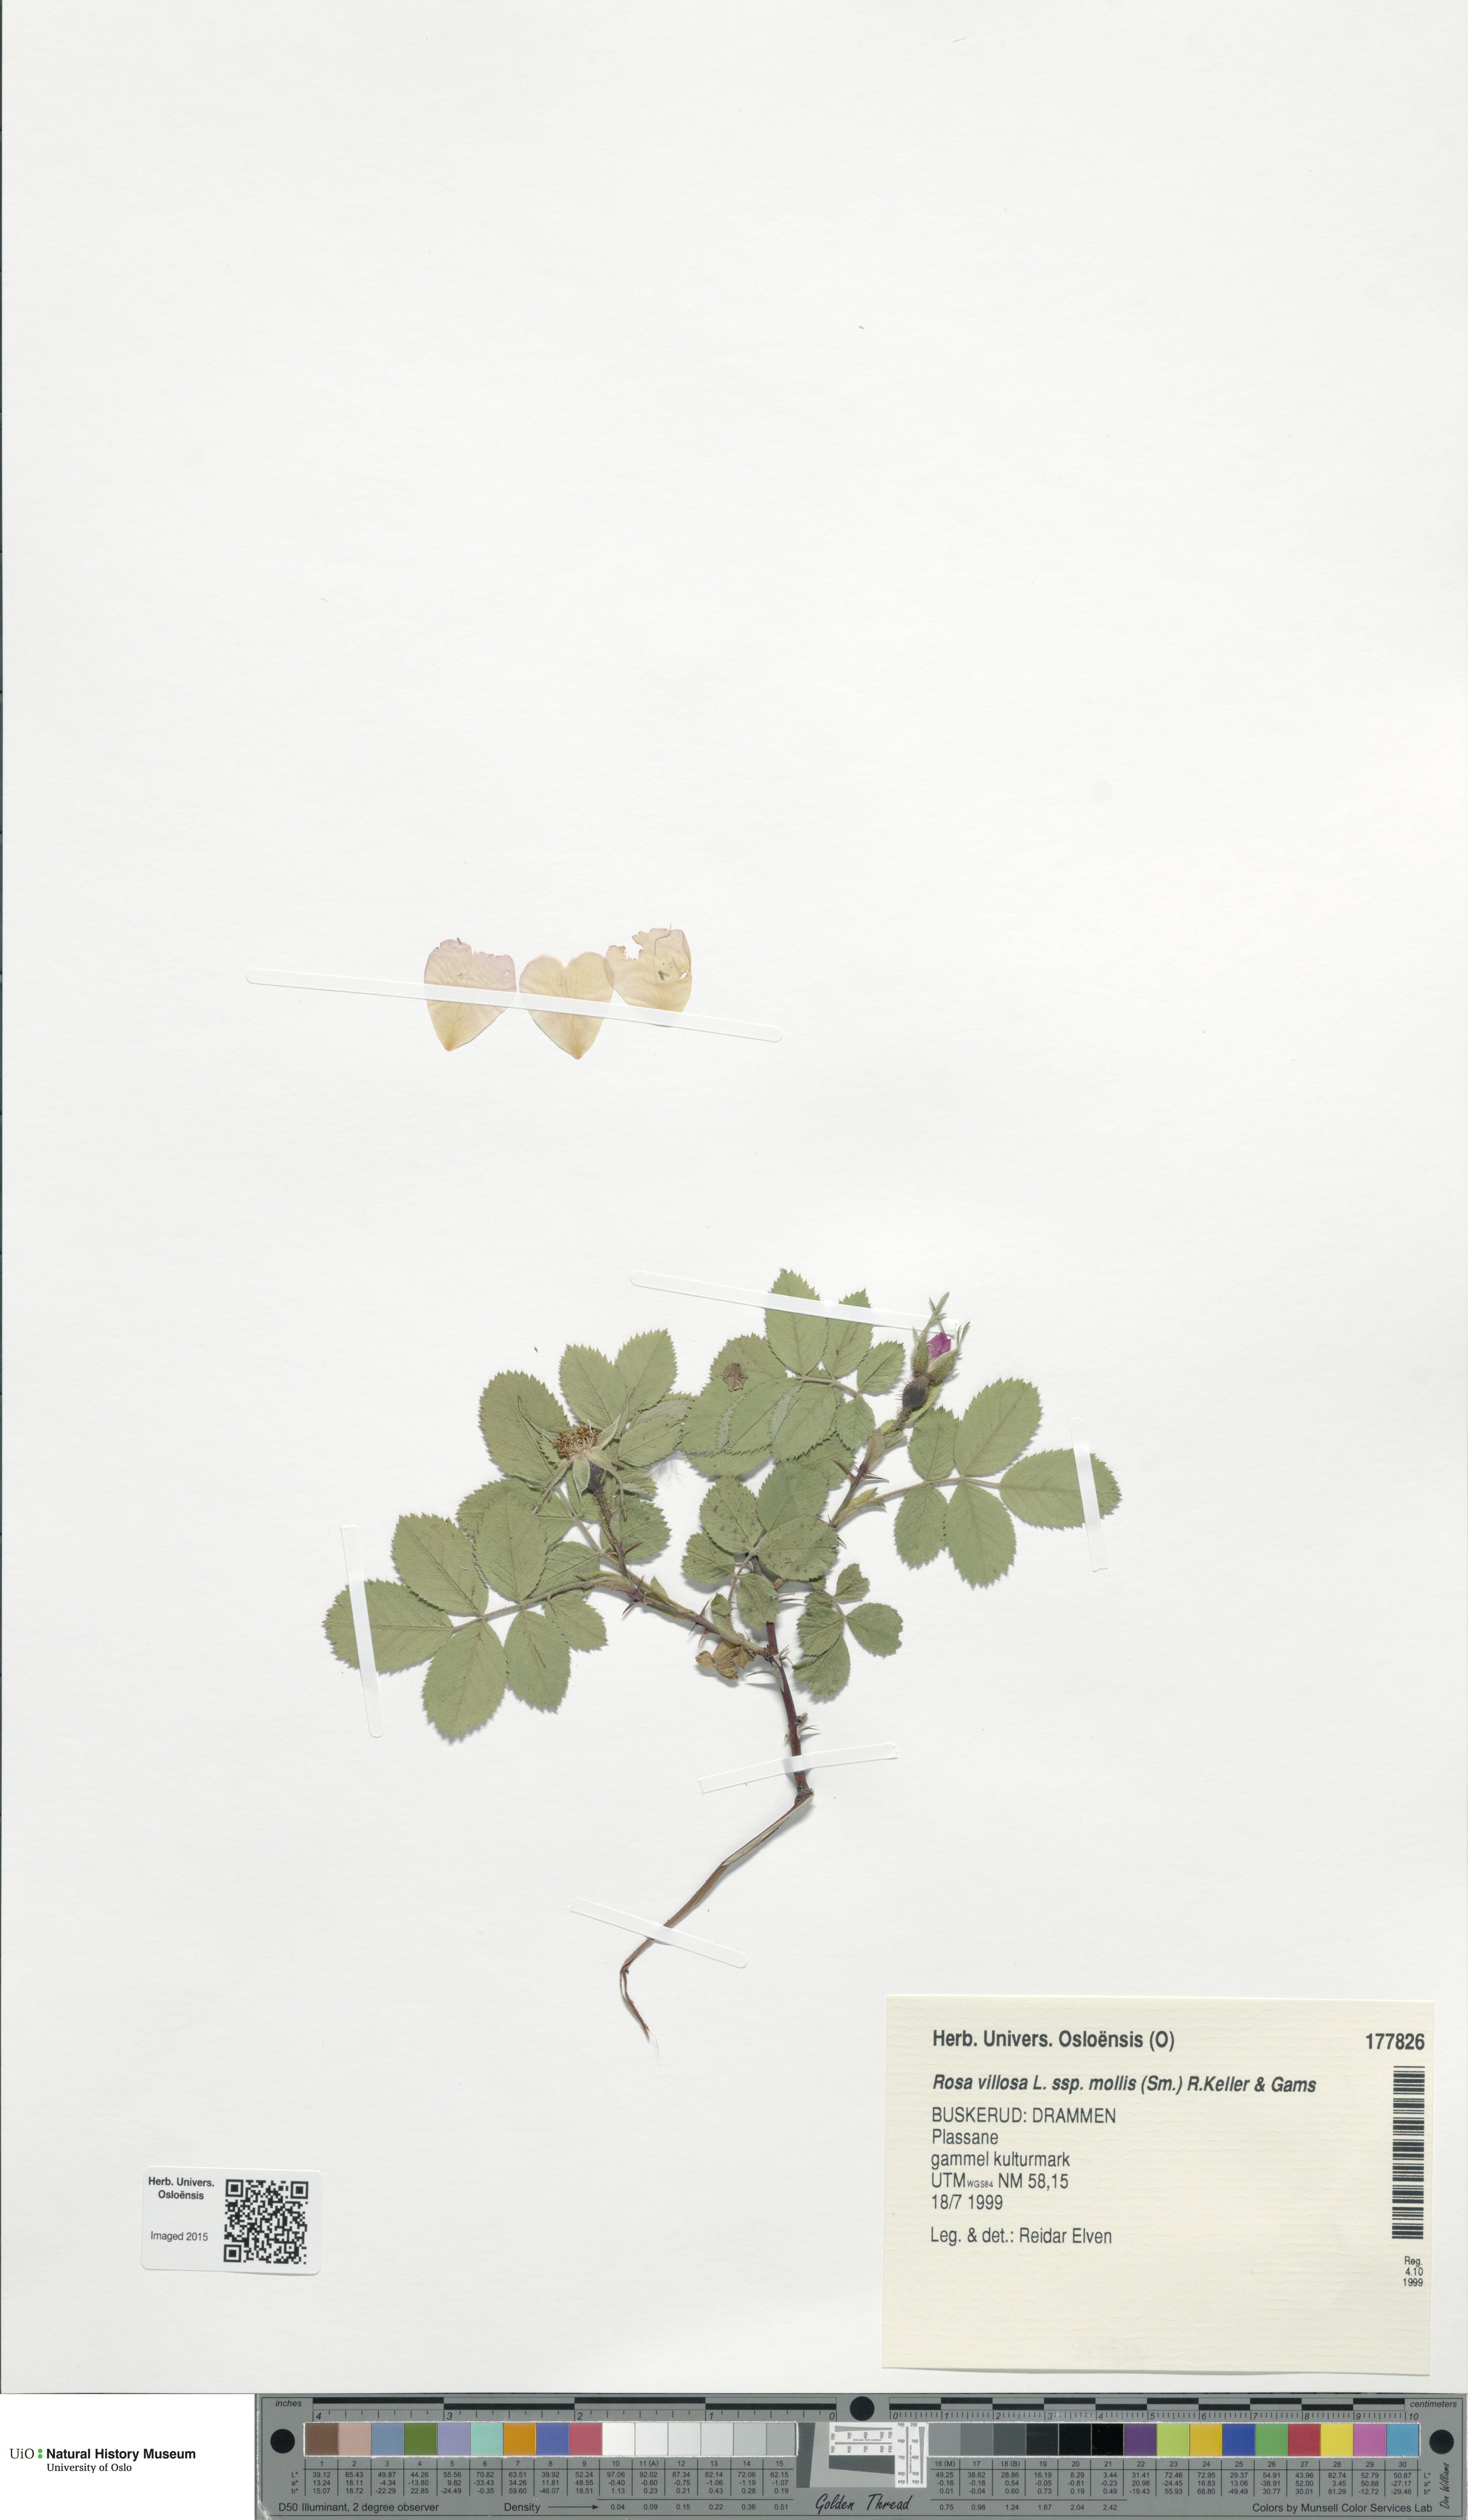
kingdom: Plantae
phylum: Tracheophyta
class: Magnoliopsida
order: Rosales
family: Rosaceae
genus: Rosa
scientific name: Rosa mollis
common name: Rose
